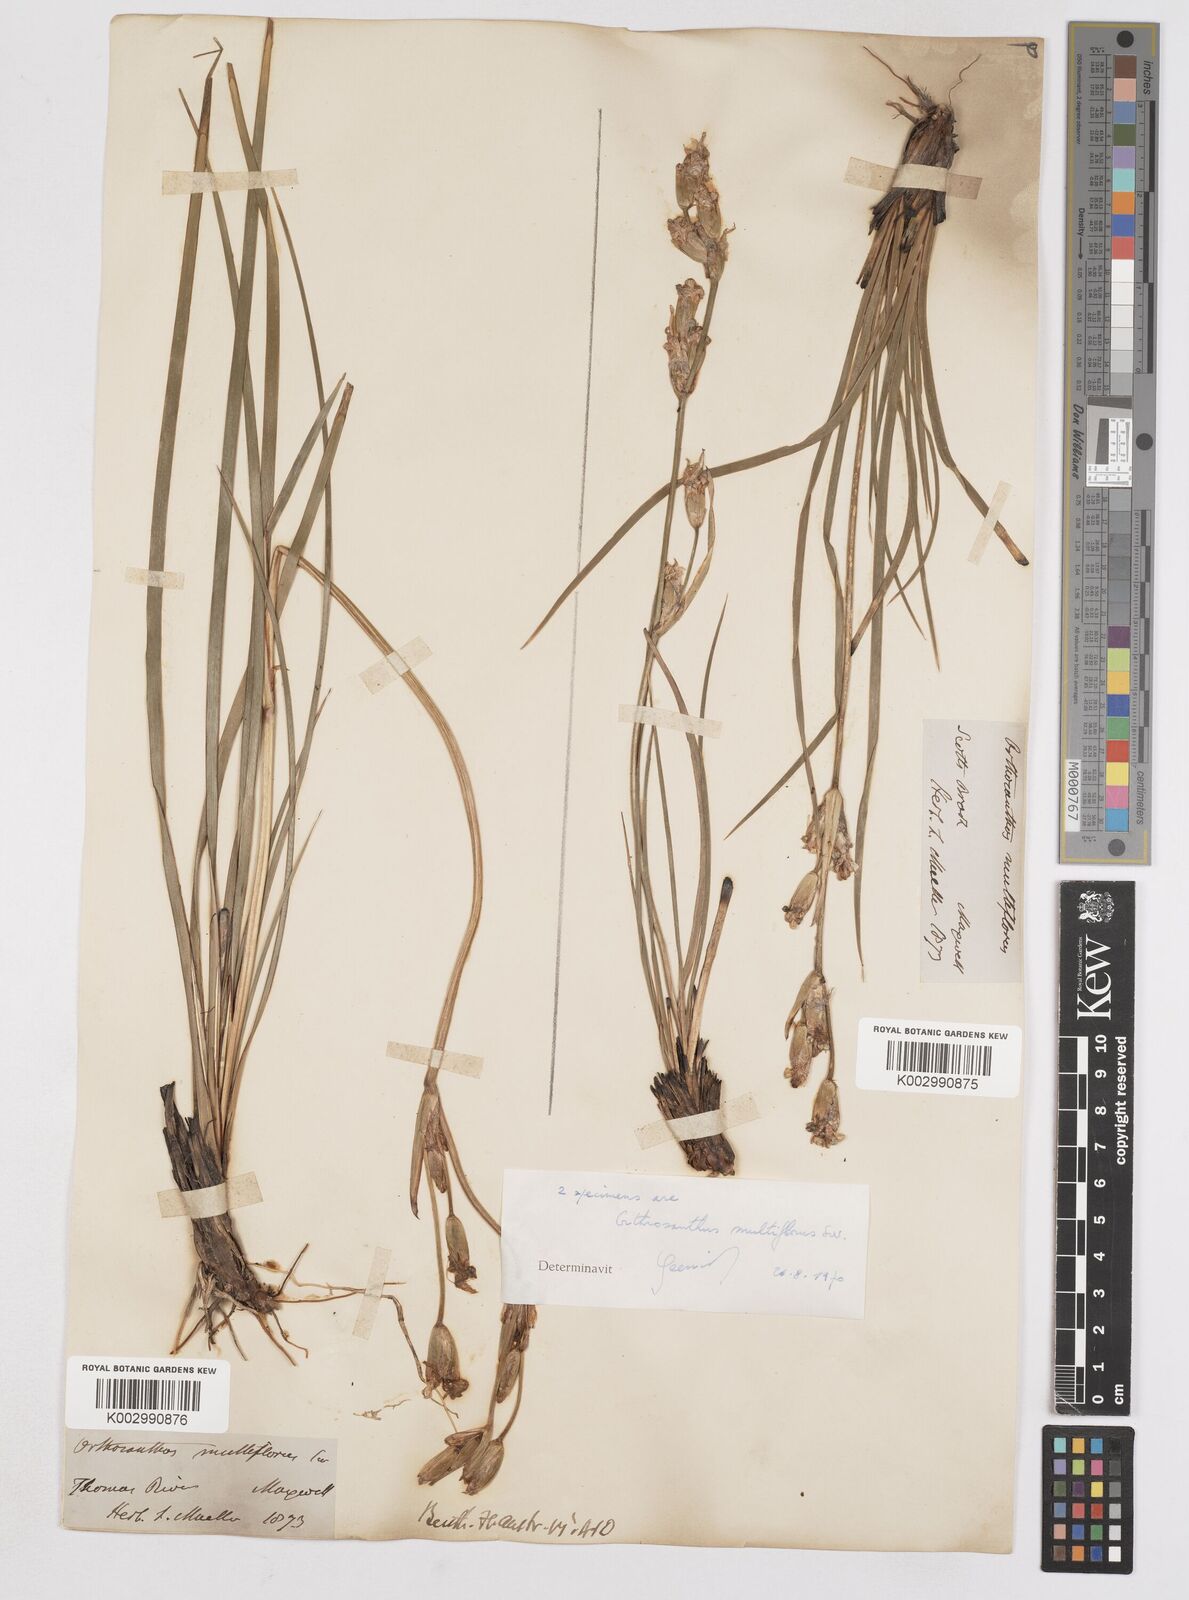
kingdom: Plantae
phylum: Tracheophyta
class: Liliopsida
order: Asparagales
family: Iridaceae
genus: Orthrosanthus
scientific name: Orthrosanthus multiflorus
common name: Morning-flag
